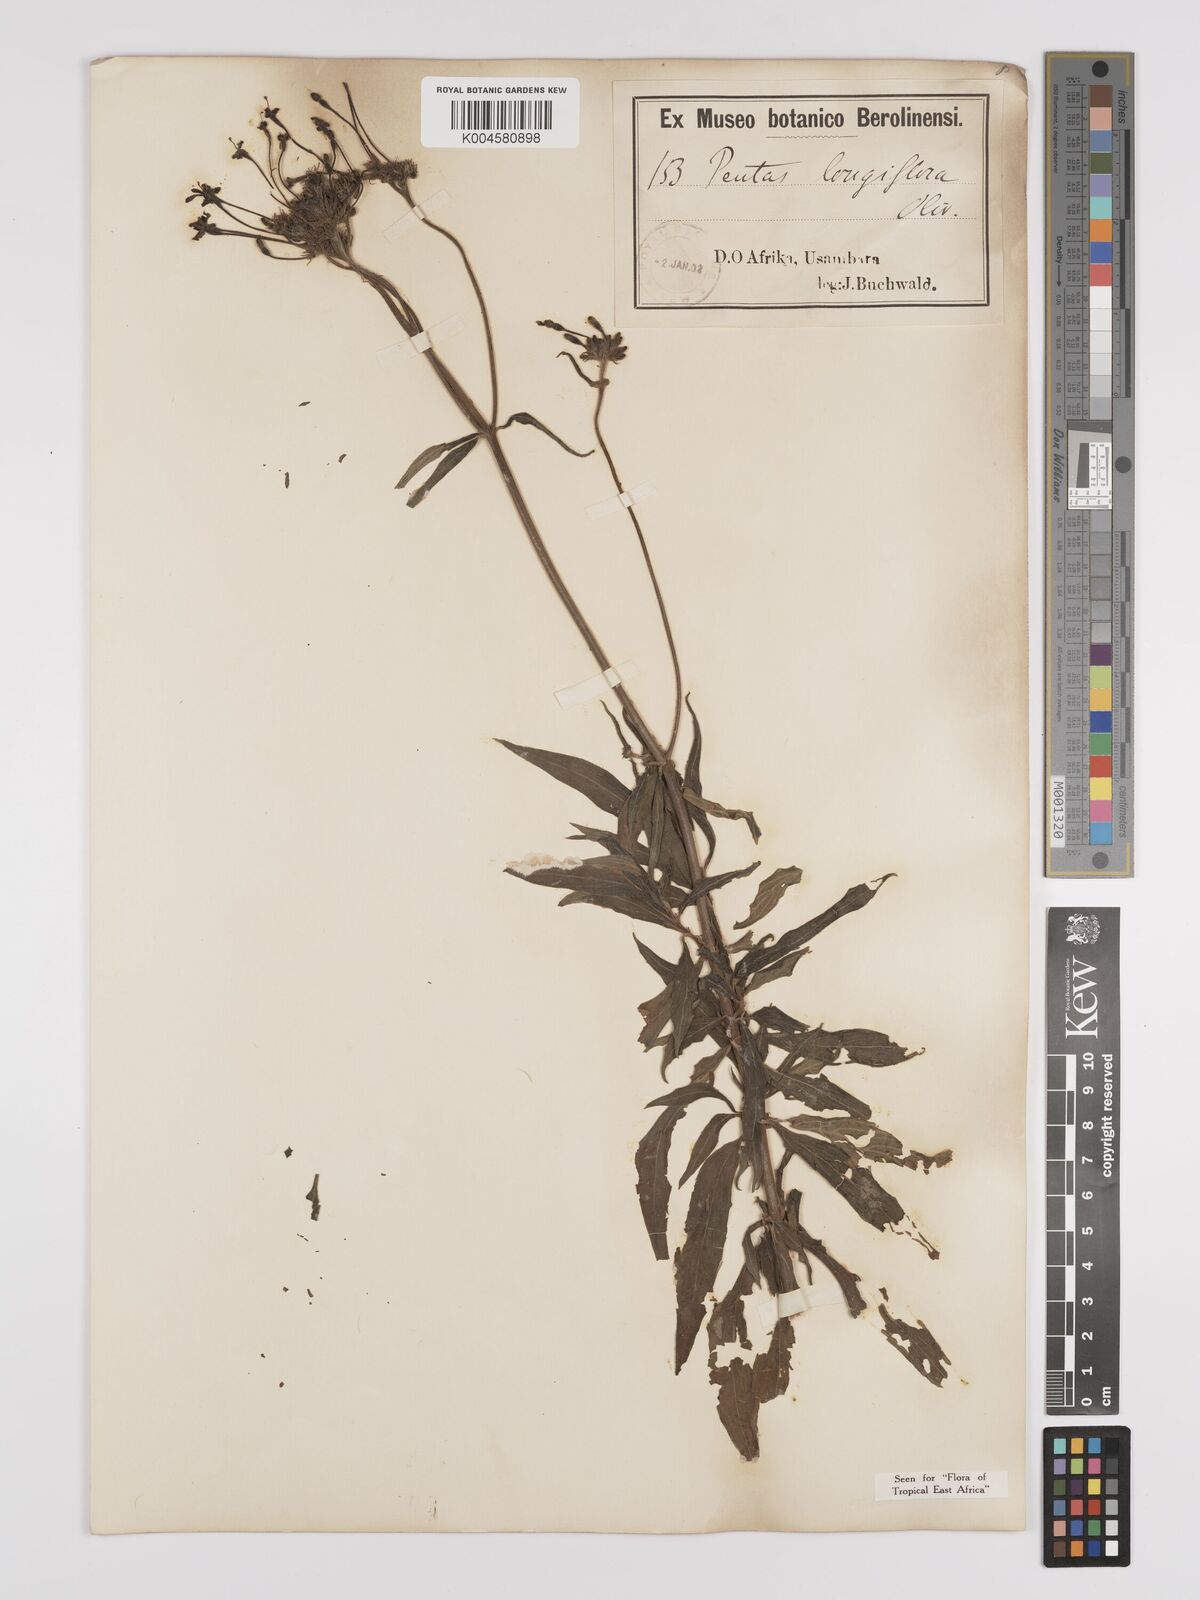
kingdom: Plantae
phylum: Tracheophyta
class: Magnoliopsida
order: Gentianales
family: Rubiaceae
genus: Dolichopentas
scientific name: Dolichopentas longiflora
